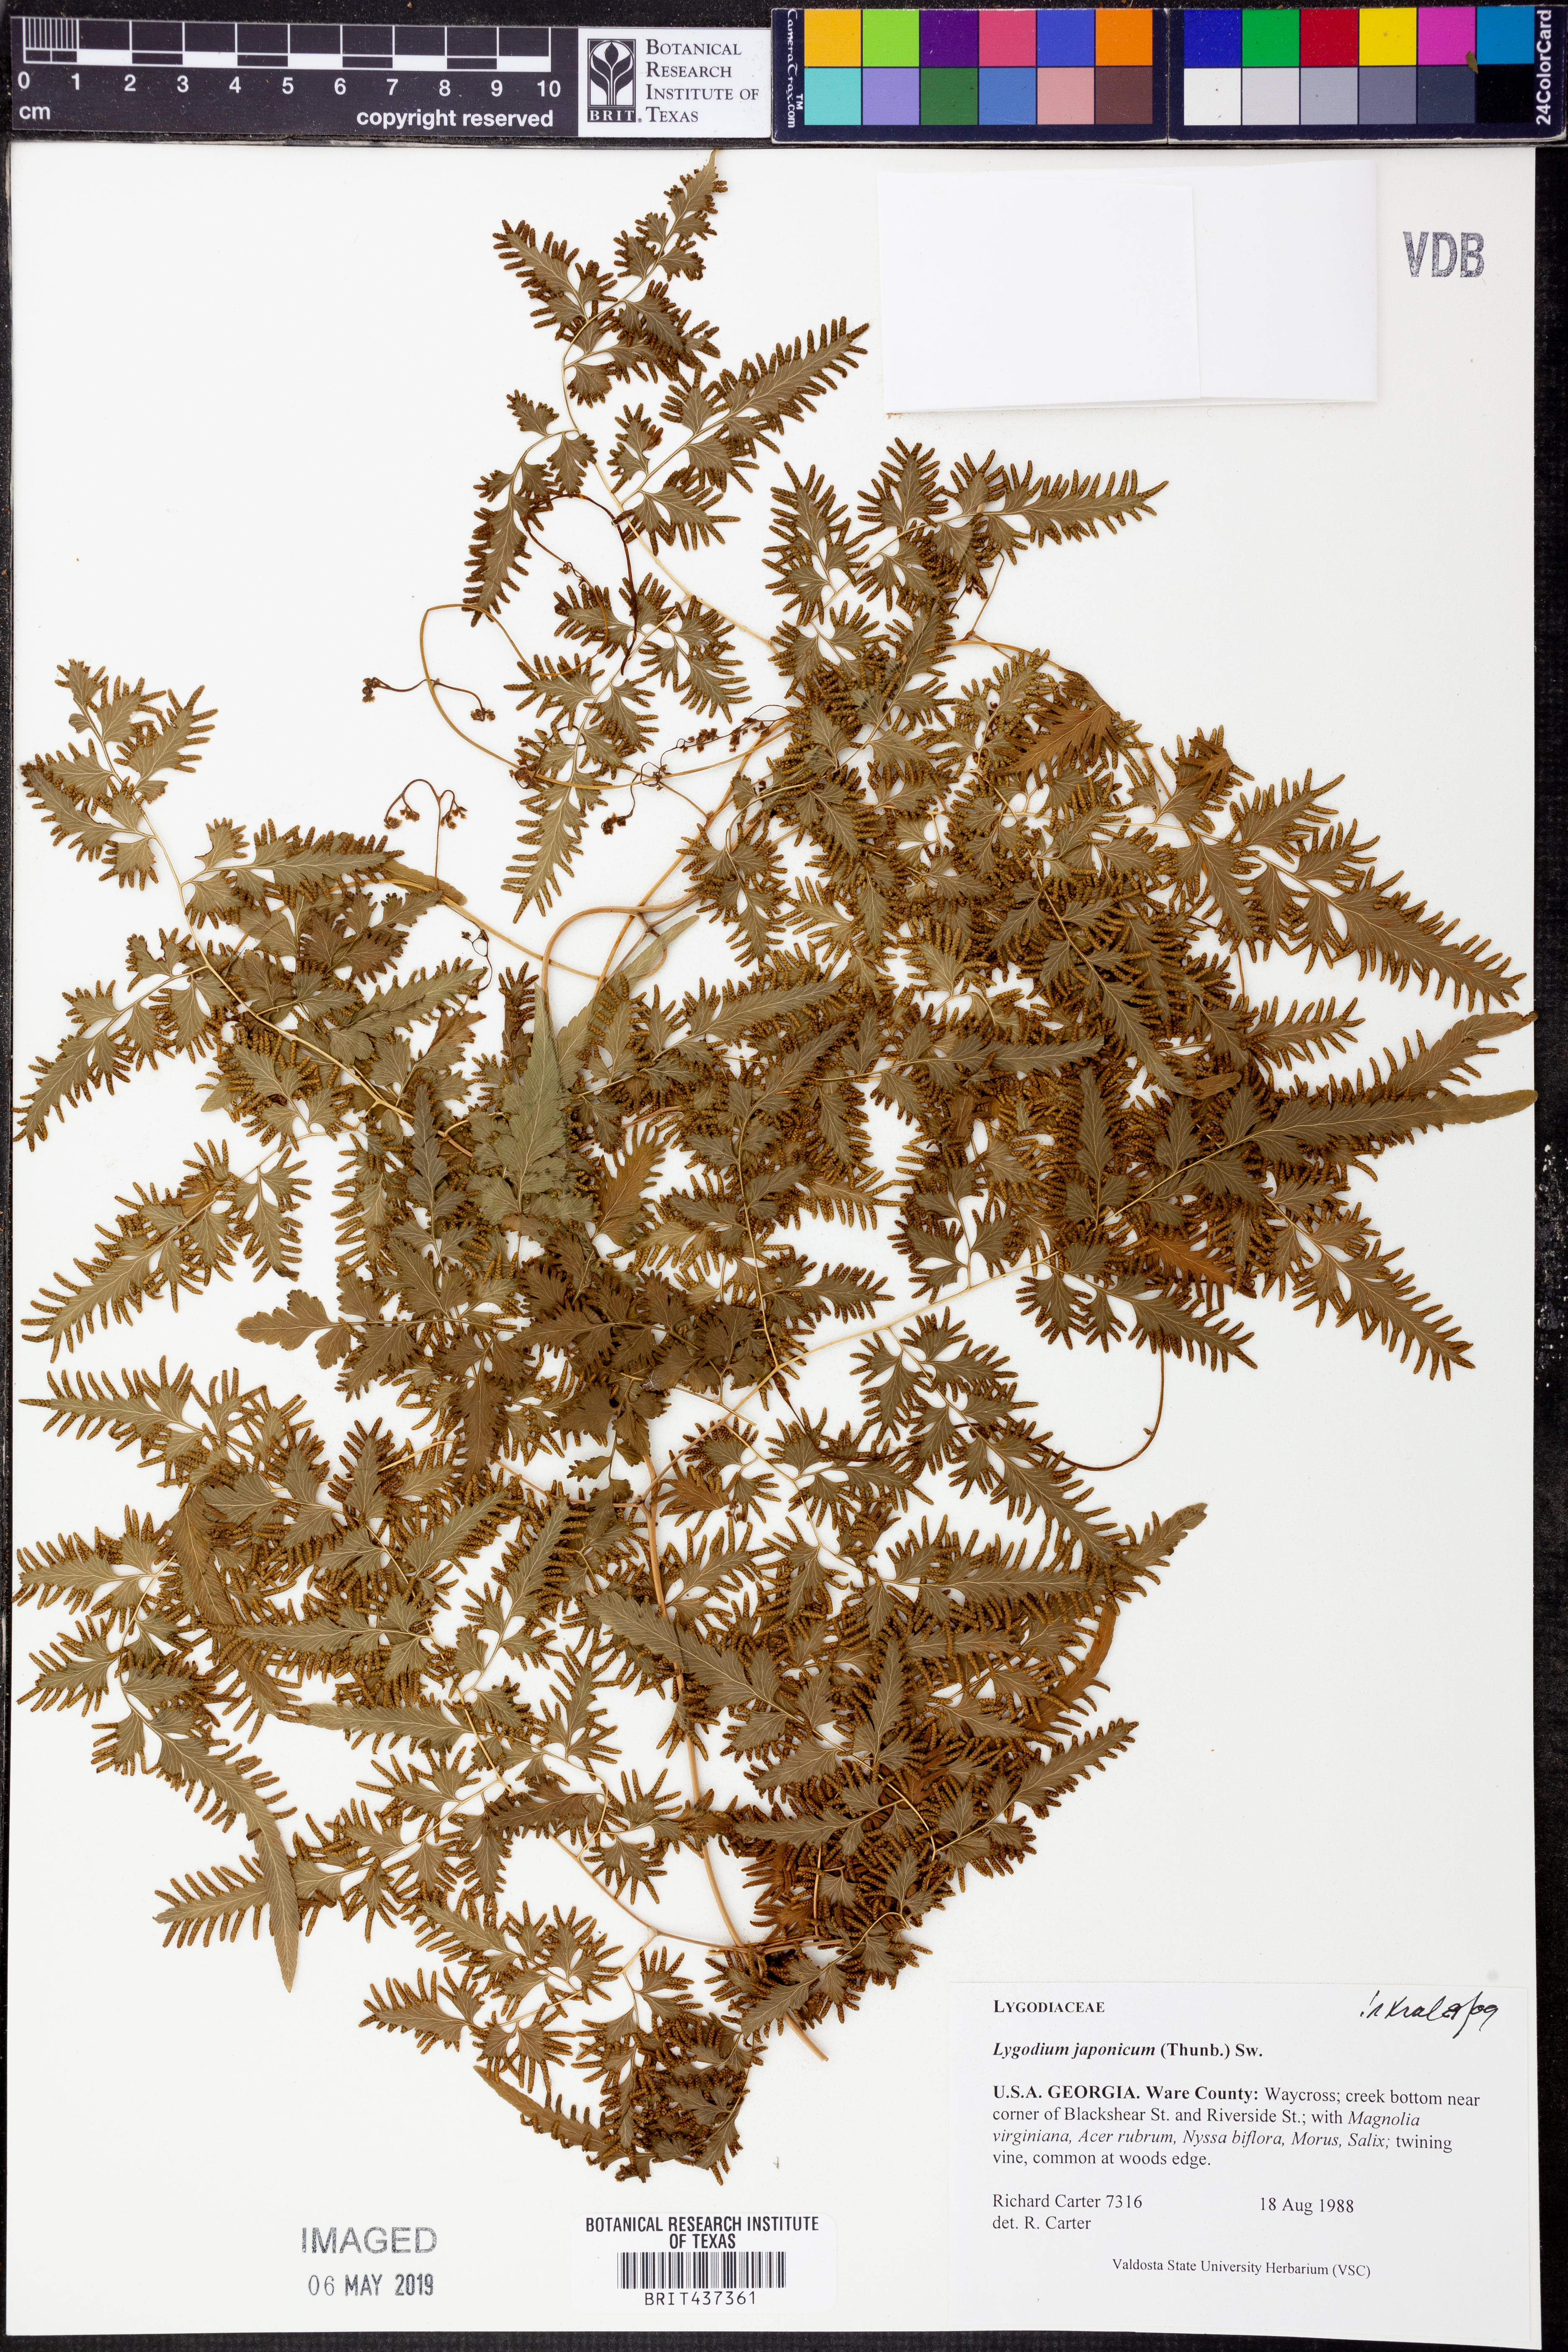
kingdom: Plantae
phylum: Tracheophyta
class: Polypodiopsida
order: Schizaeales
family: Lygodiaceae
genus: Lygodium
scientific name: Lygodium japonicum
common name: Japanese climbing fern
